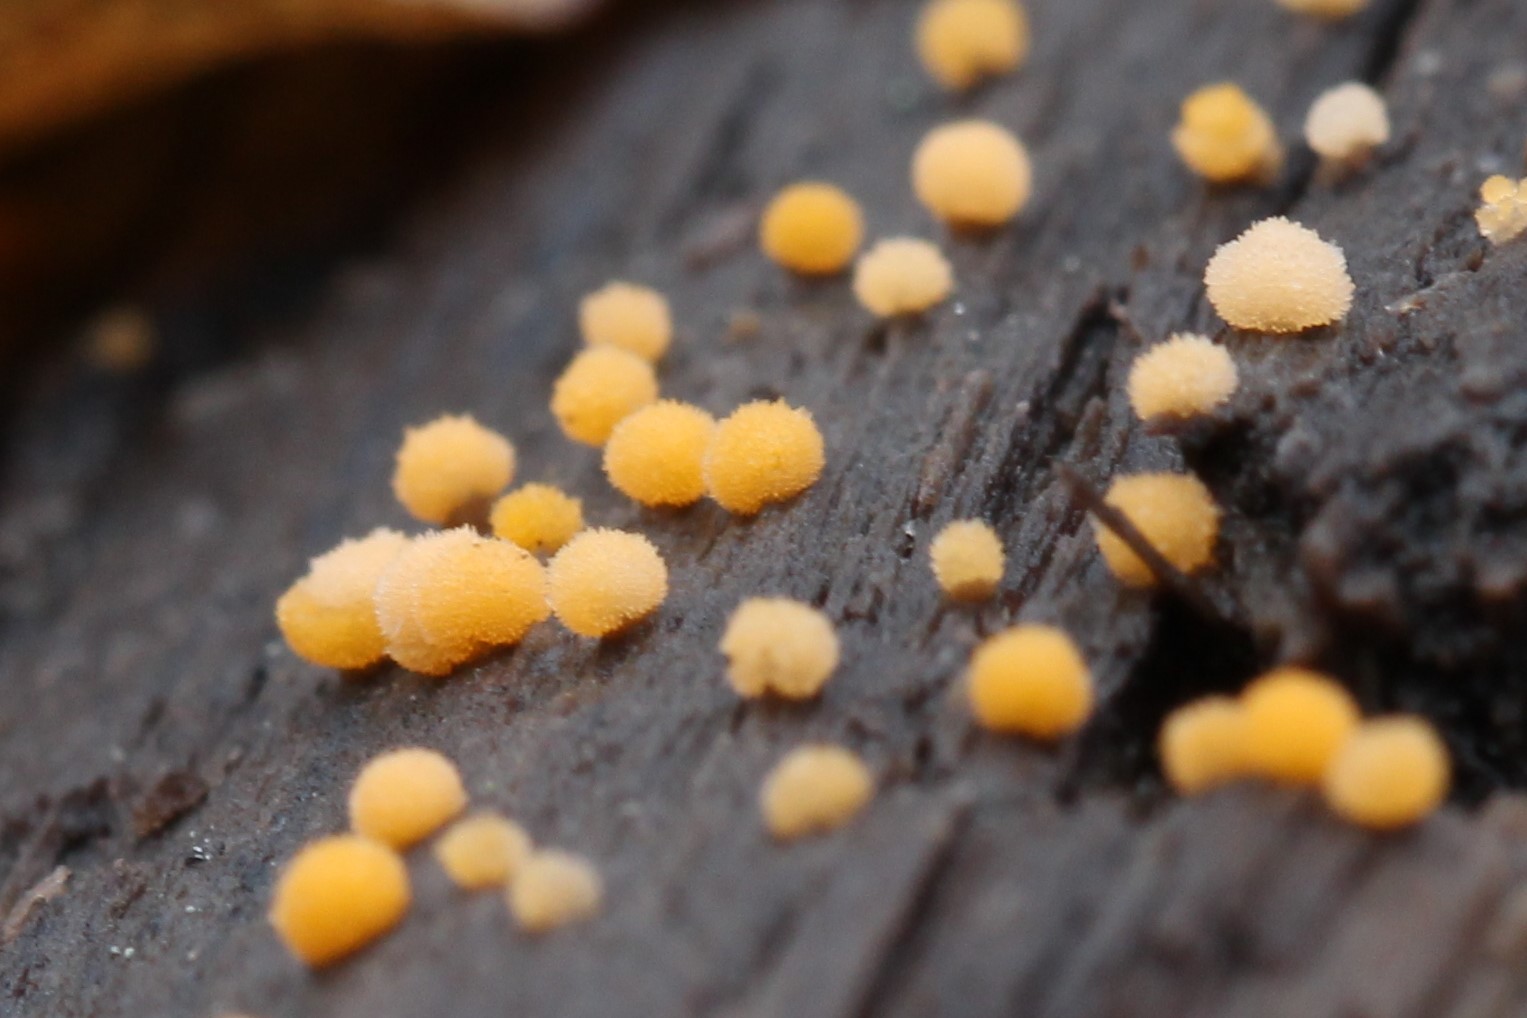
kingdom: Fungi
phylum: Ascomycota
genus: Bactridium
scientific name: Bactridium flavum
